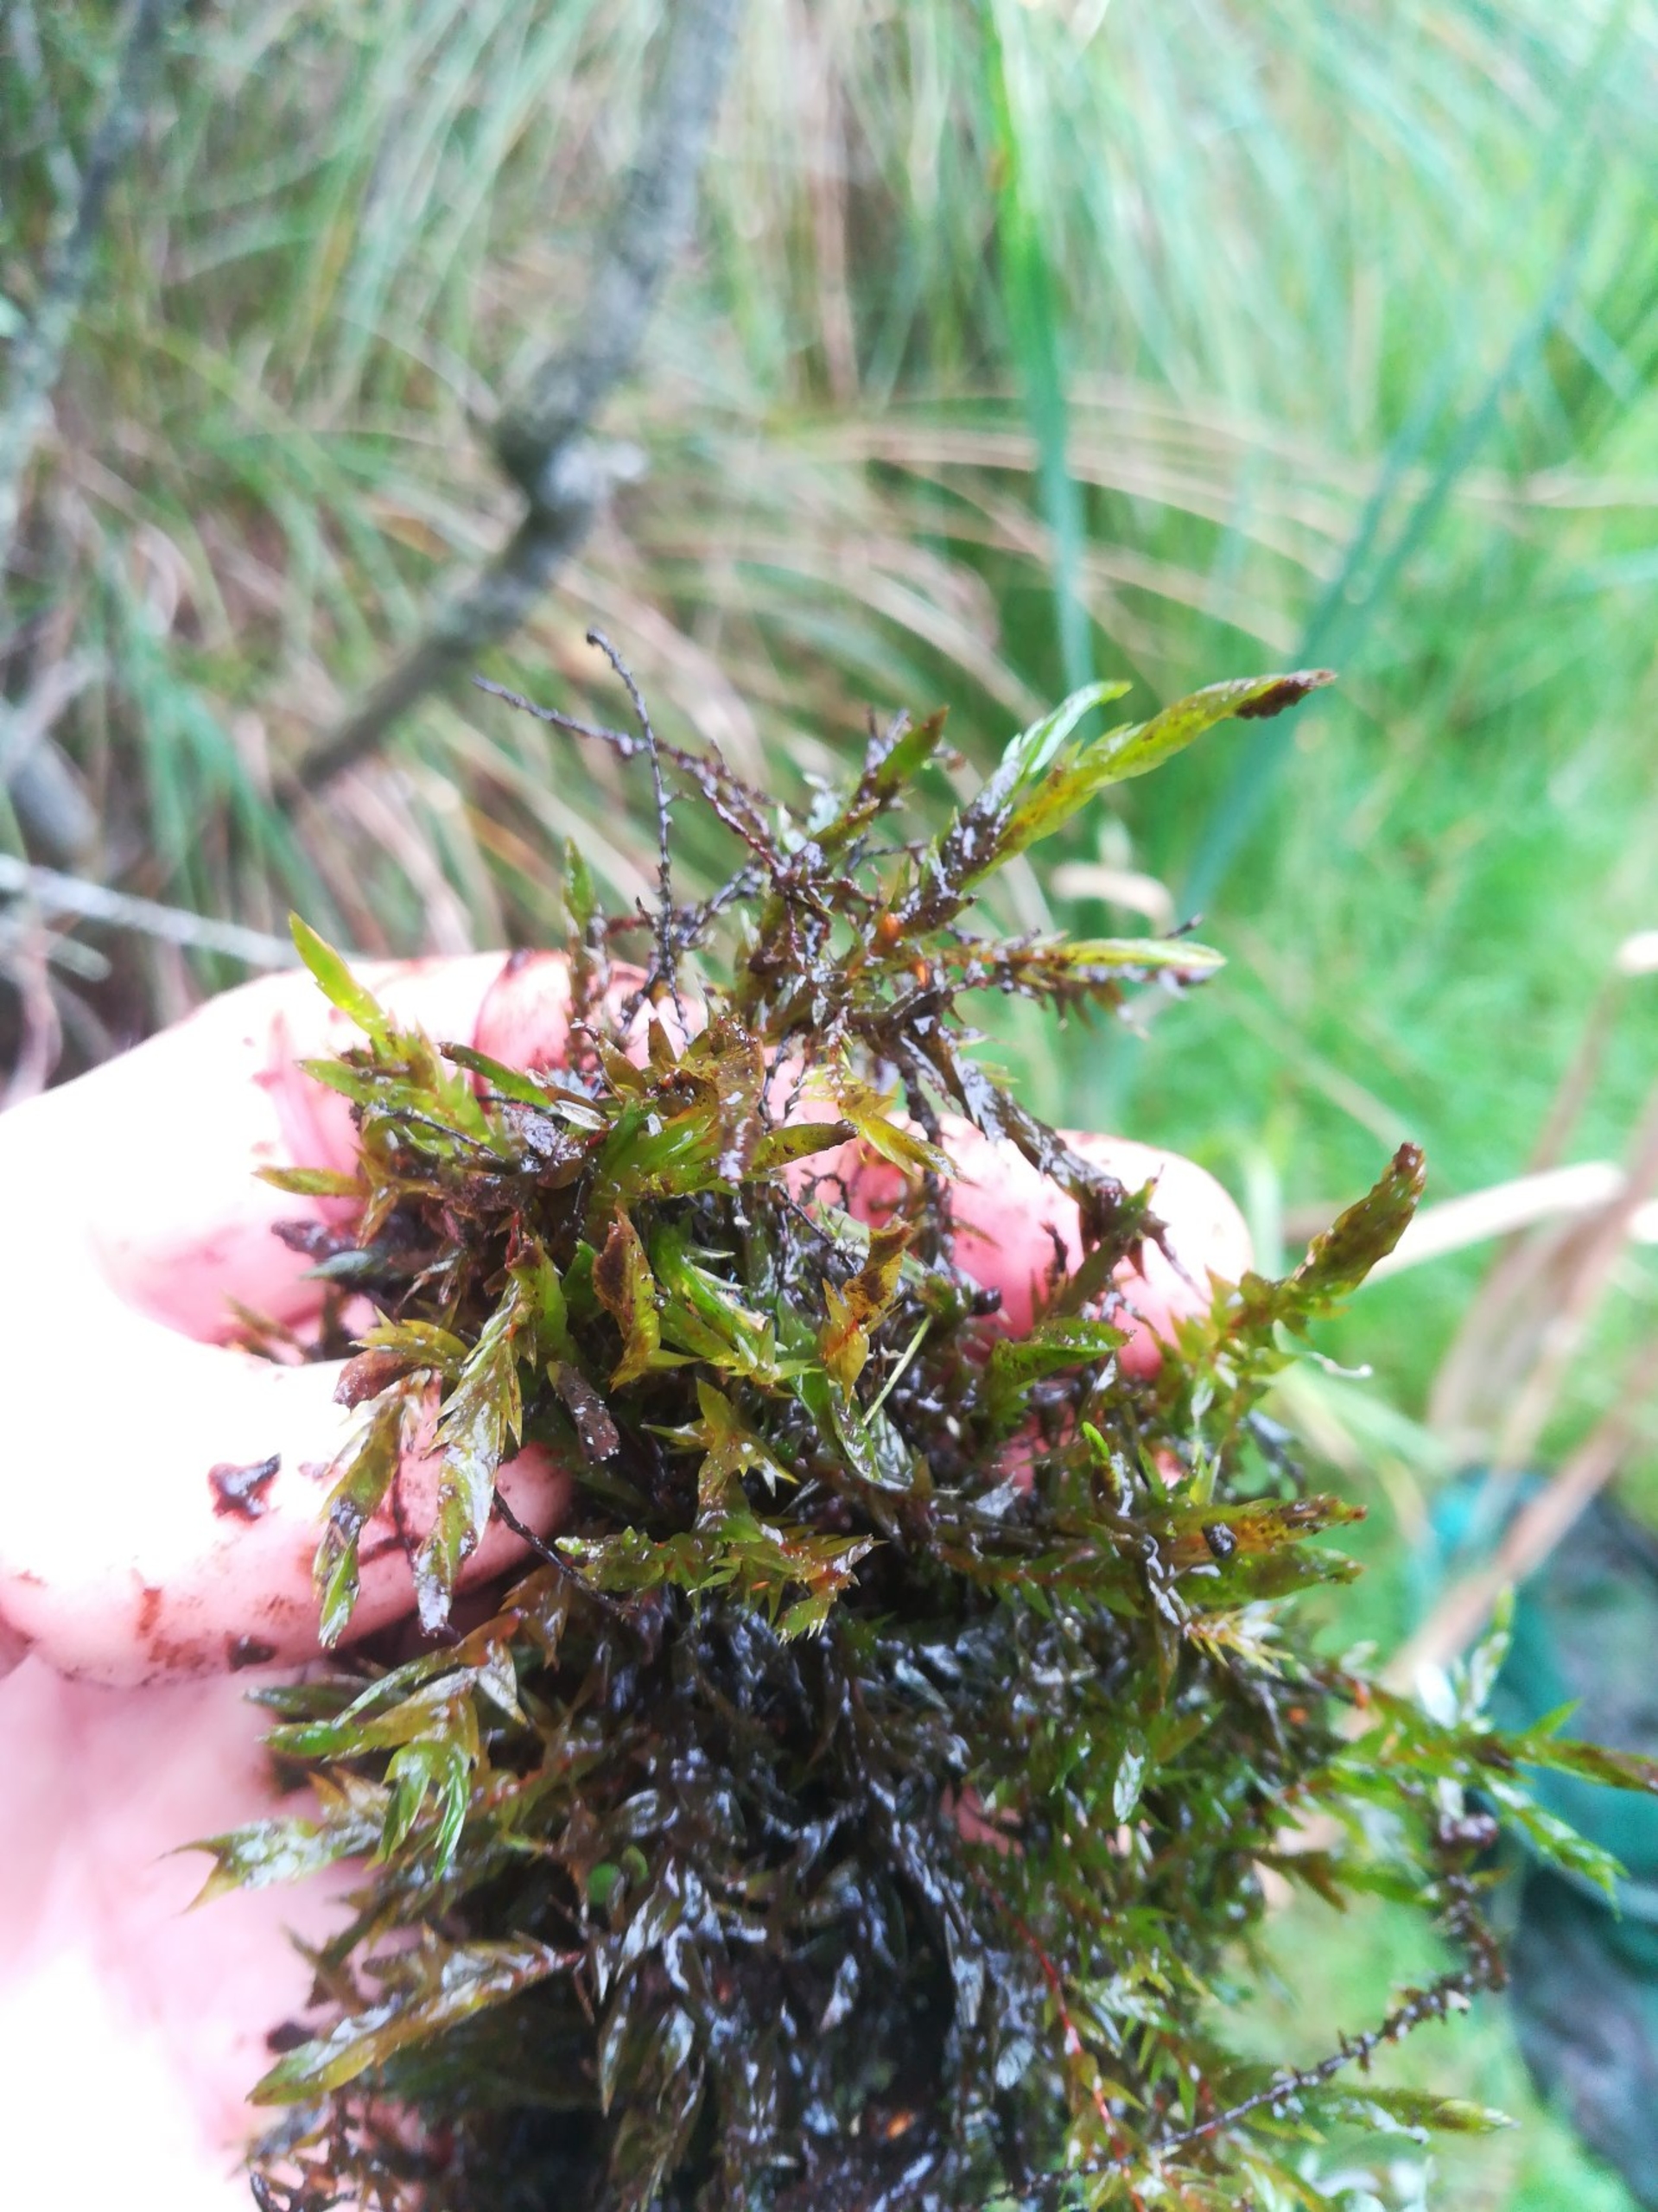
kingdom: Plantae
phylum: Bryophyta
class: Bryopsida
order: Hypnales
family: Fontinalaceae
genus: Fontinalis
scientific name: Fontinalis antipyretica
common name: Stor kildemos
